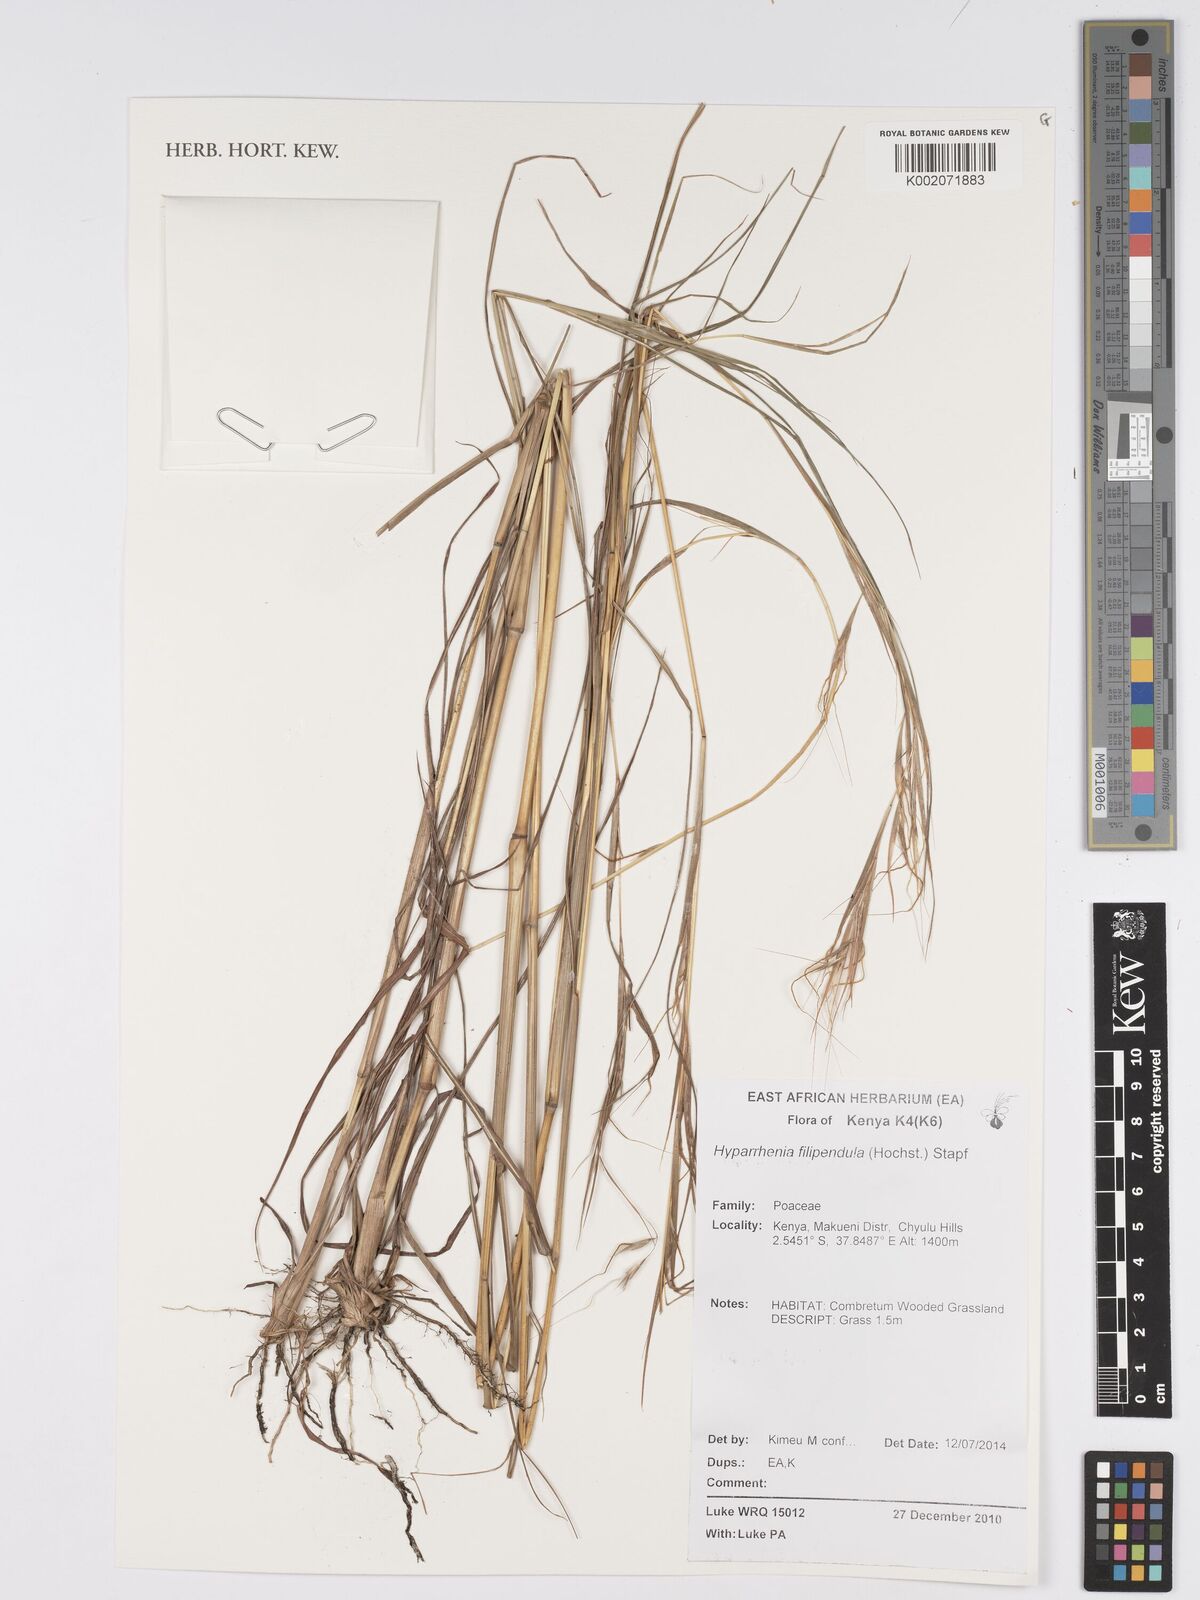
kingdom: Plantae
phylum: Tracheophyta
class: Liliopsida
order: Poales
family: Poaceae
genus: Hyparrhenia
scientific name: Hyparrhenia filipendula
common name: Tambookie grass
